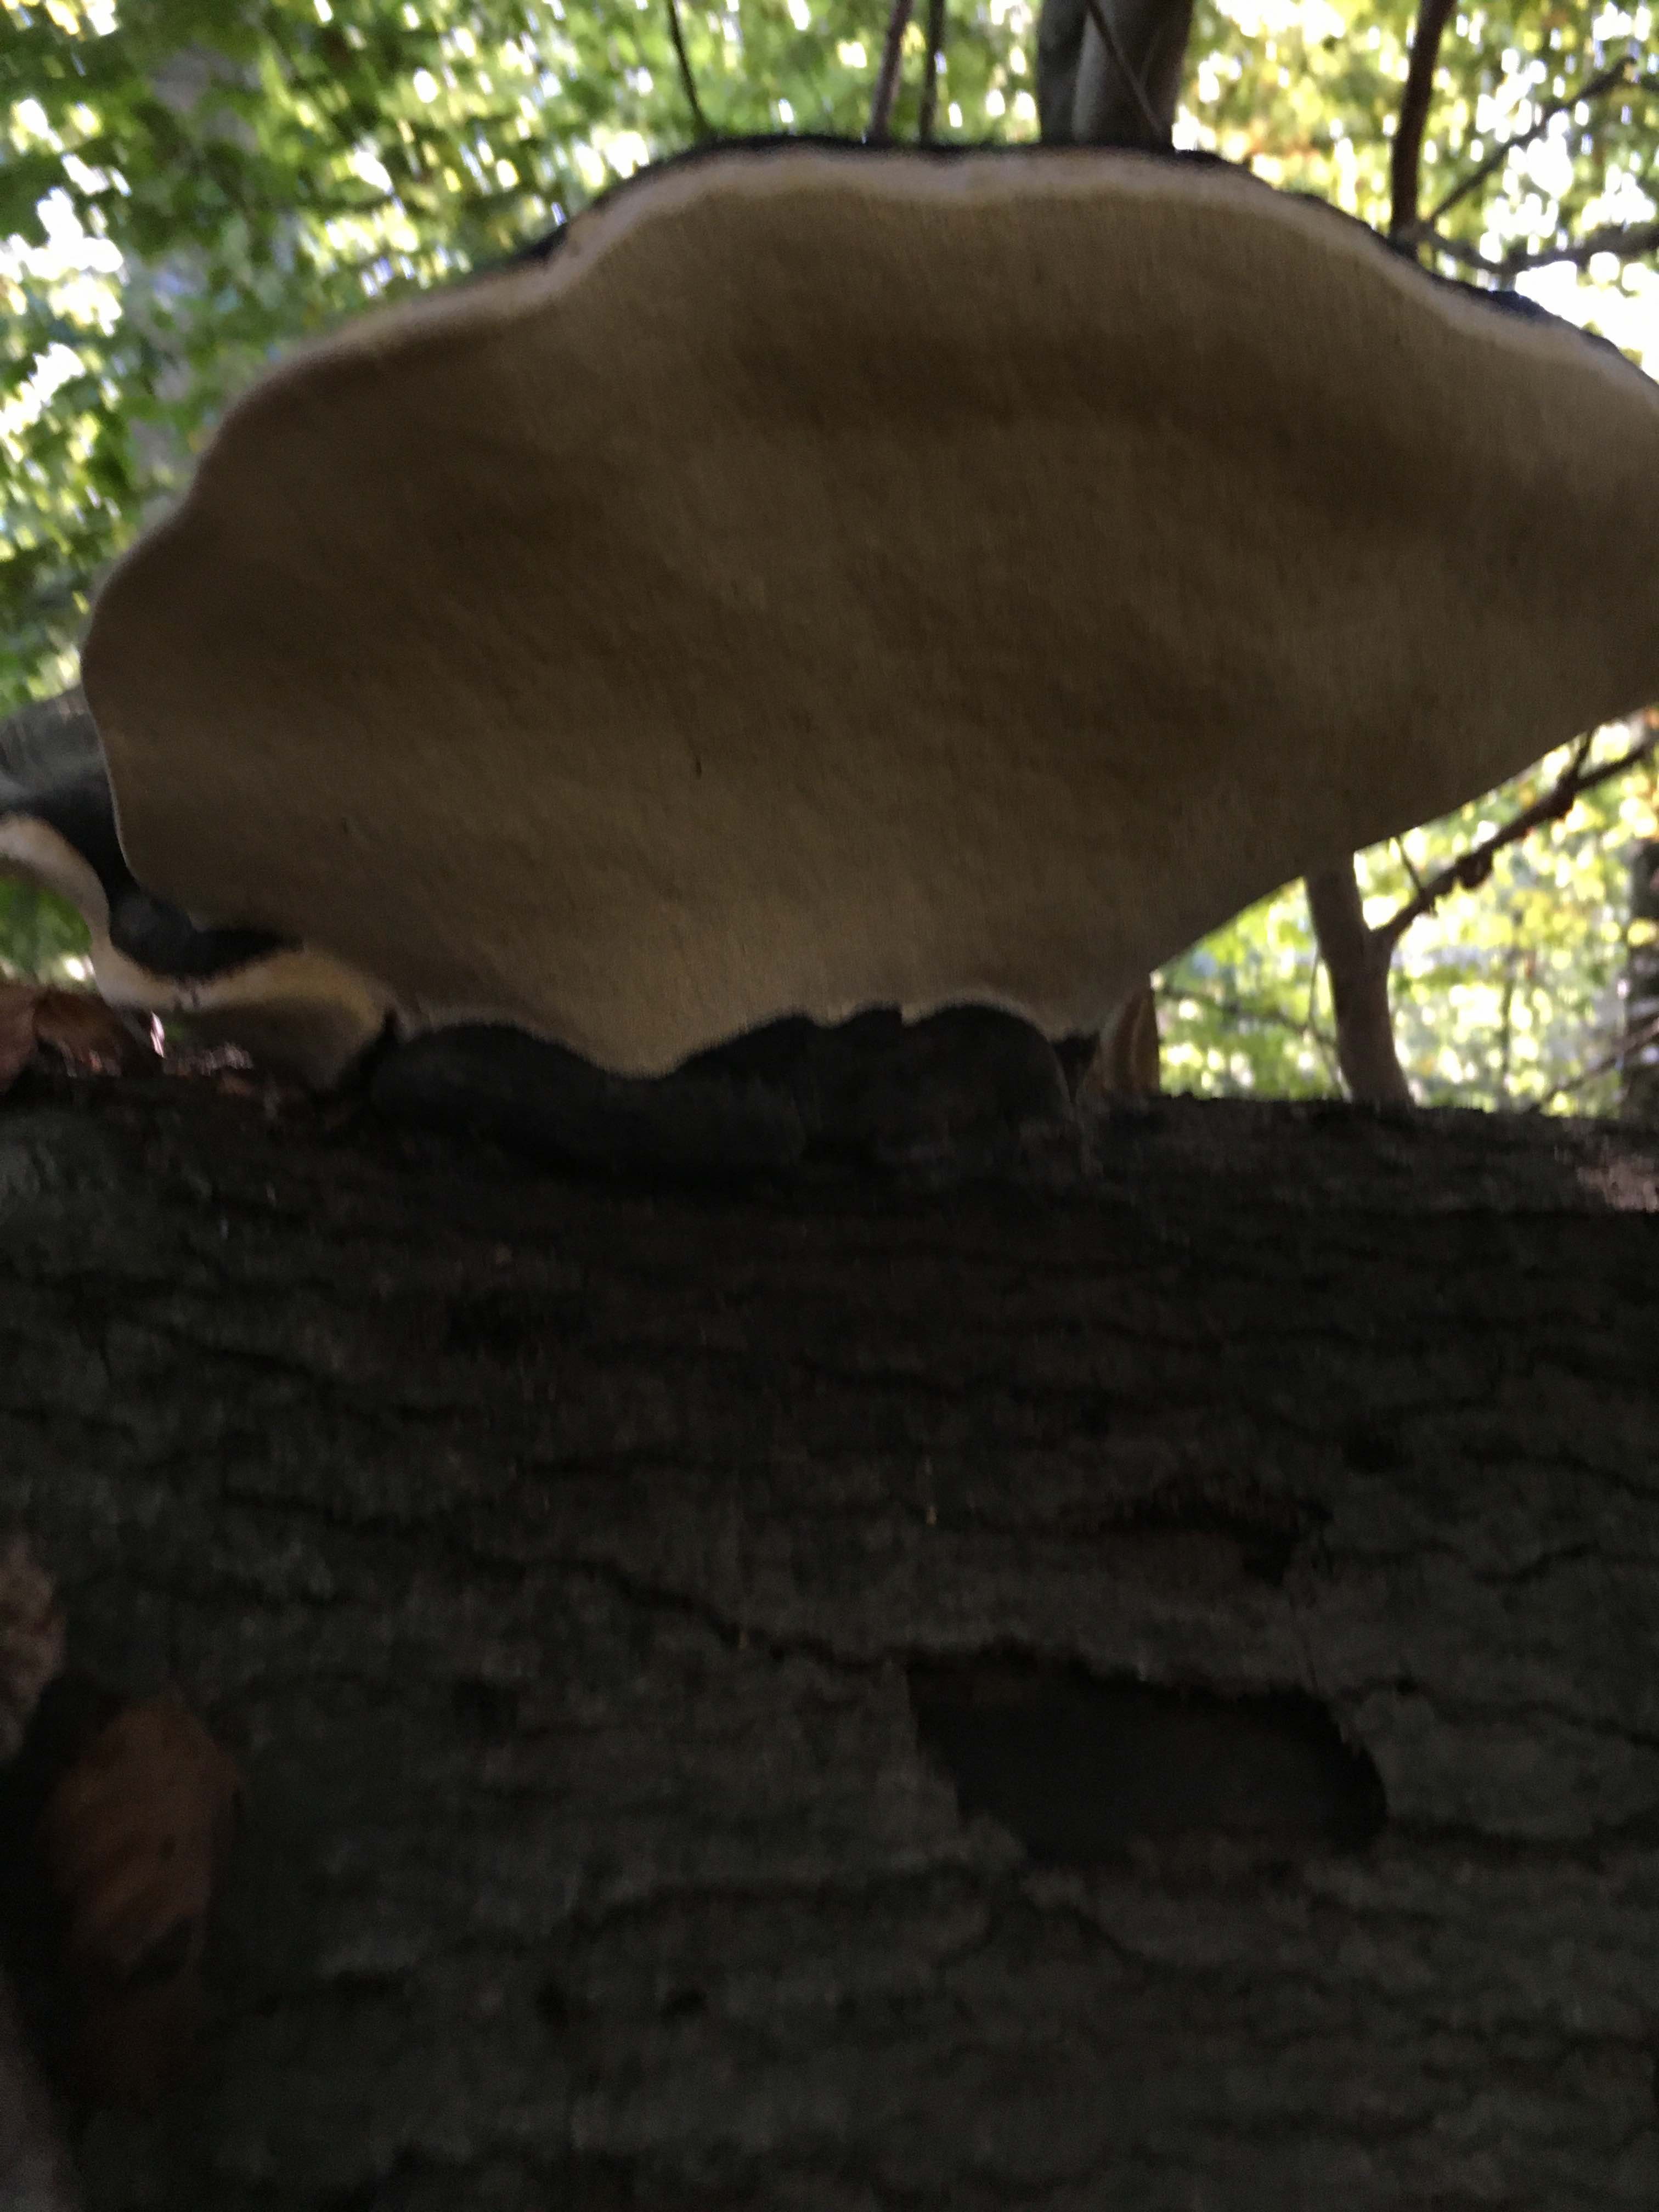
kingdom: Fungi
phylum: Basidiomycota
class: Agaricomycetes
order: Polyporales
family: Polyporaceae
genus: Fomes
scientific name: Fomes fomentarius
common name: tøndersvamp
